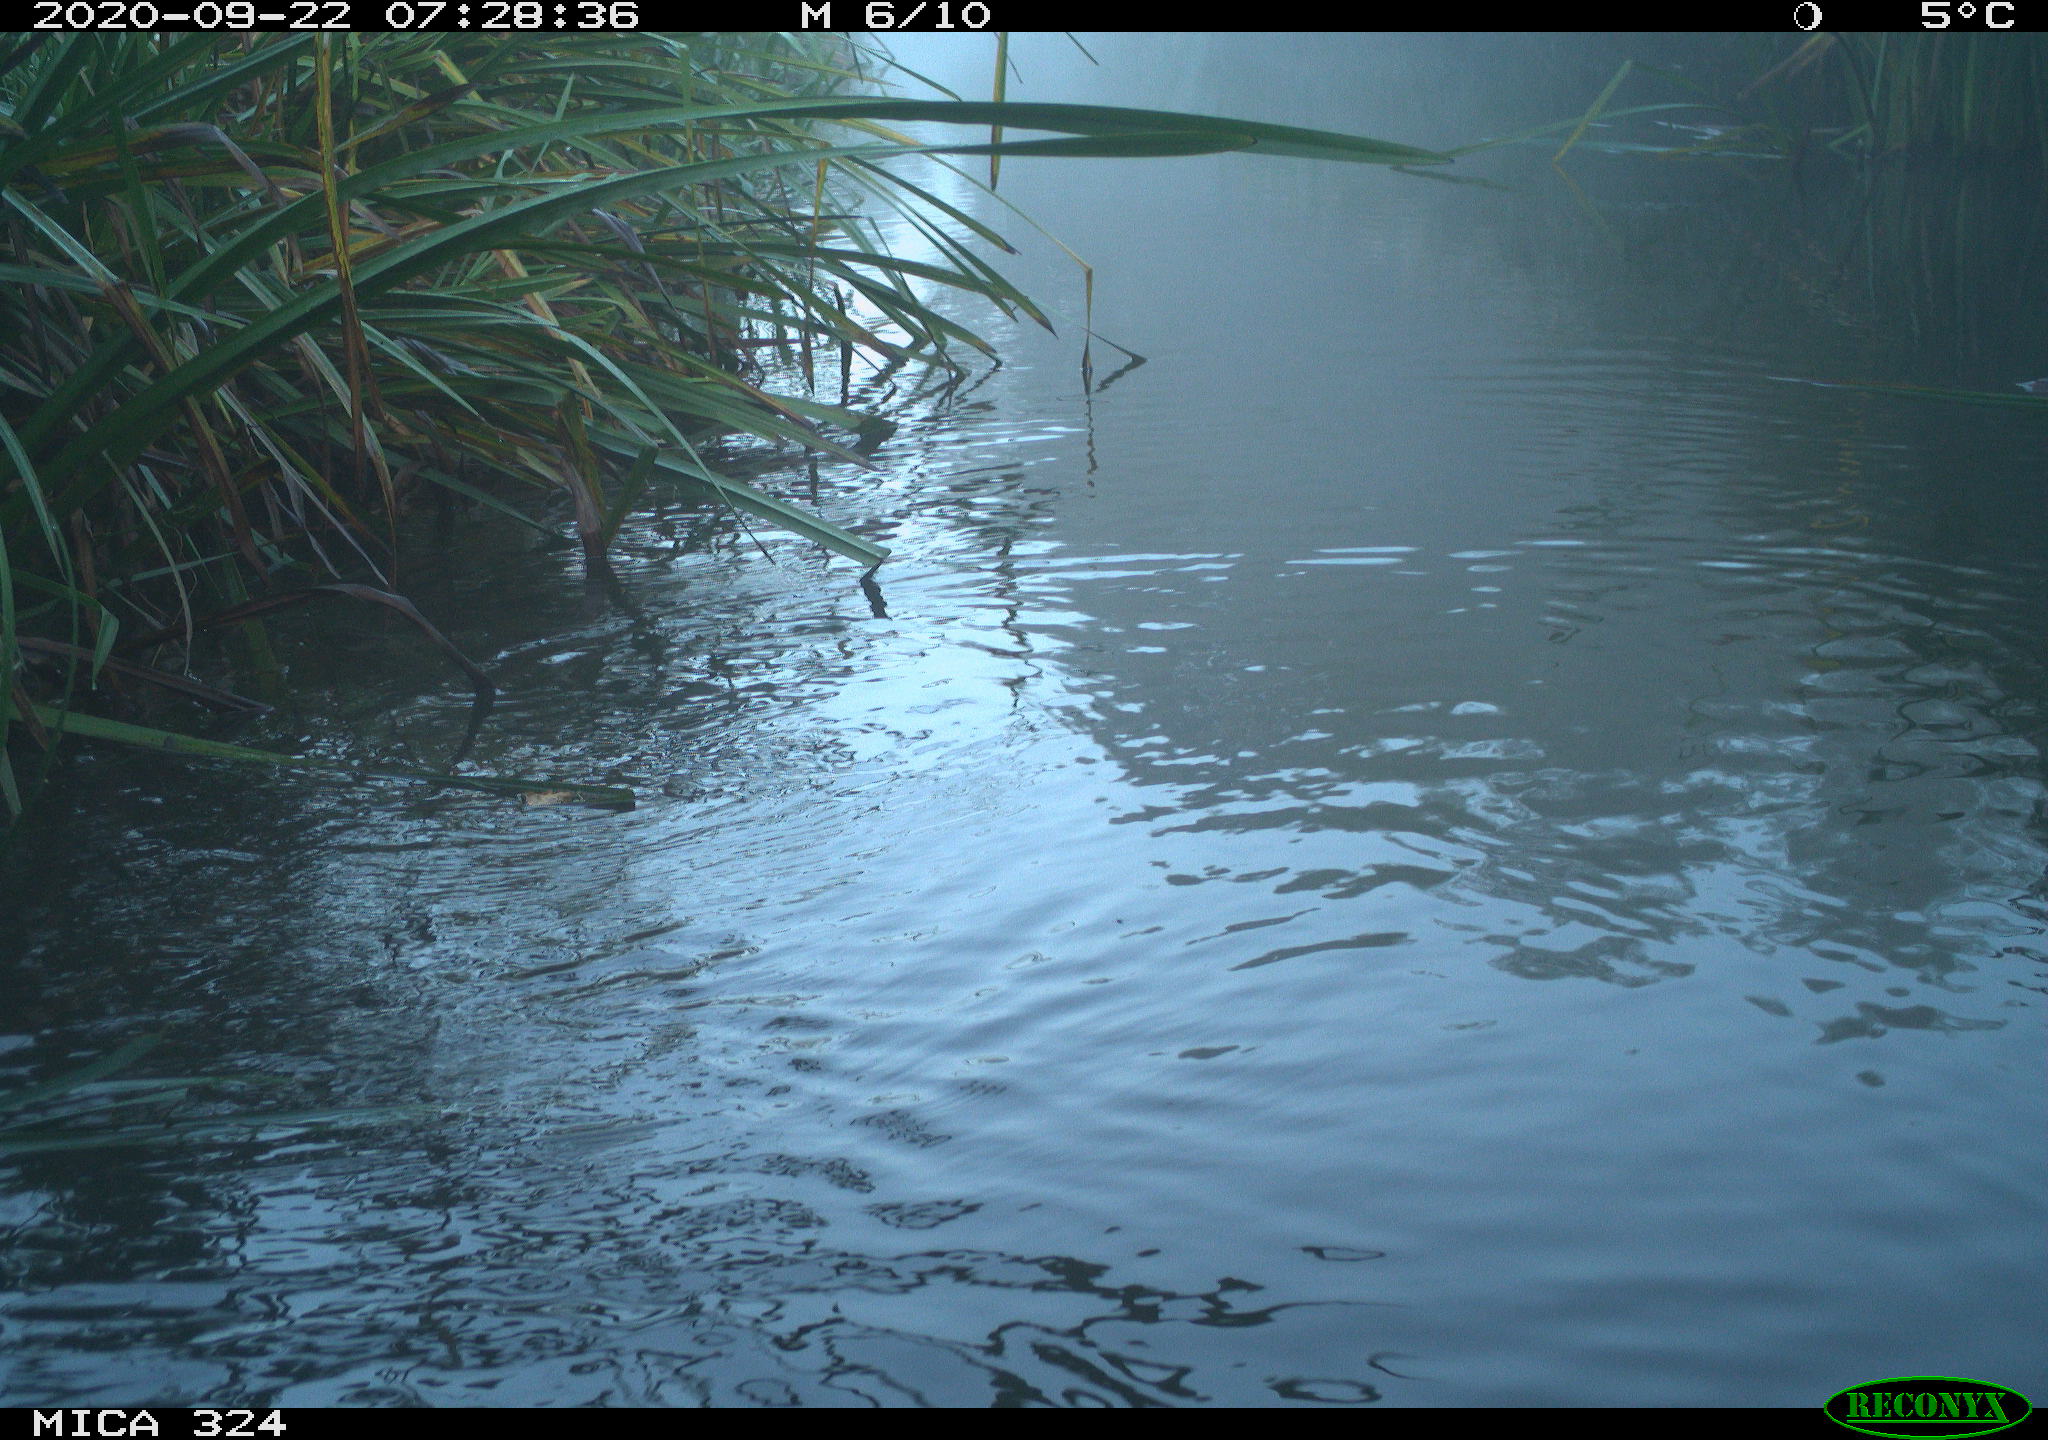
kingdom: Animalia
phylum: Chordata
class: Aves
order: Gruiformes
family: Rallidae
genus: Gallinula
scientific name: Gallinula chloropus
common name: Common moorhen
